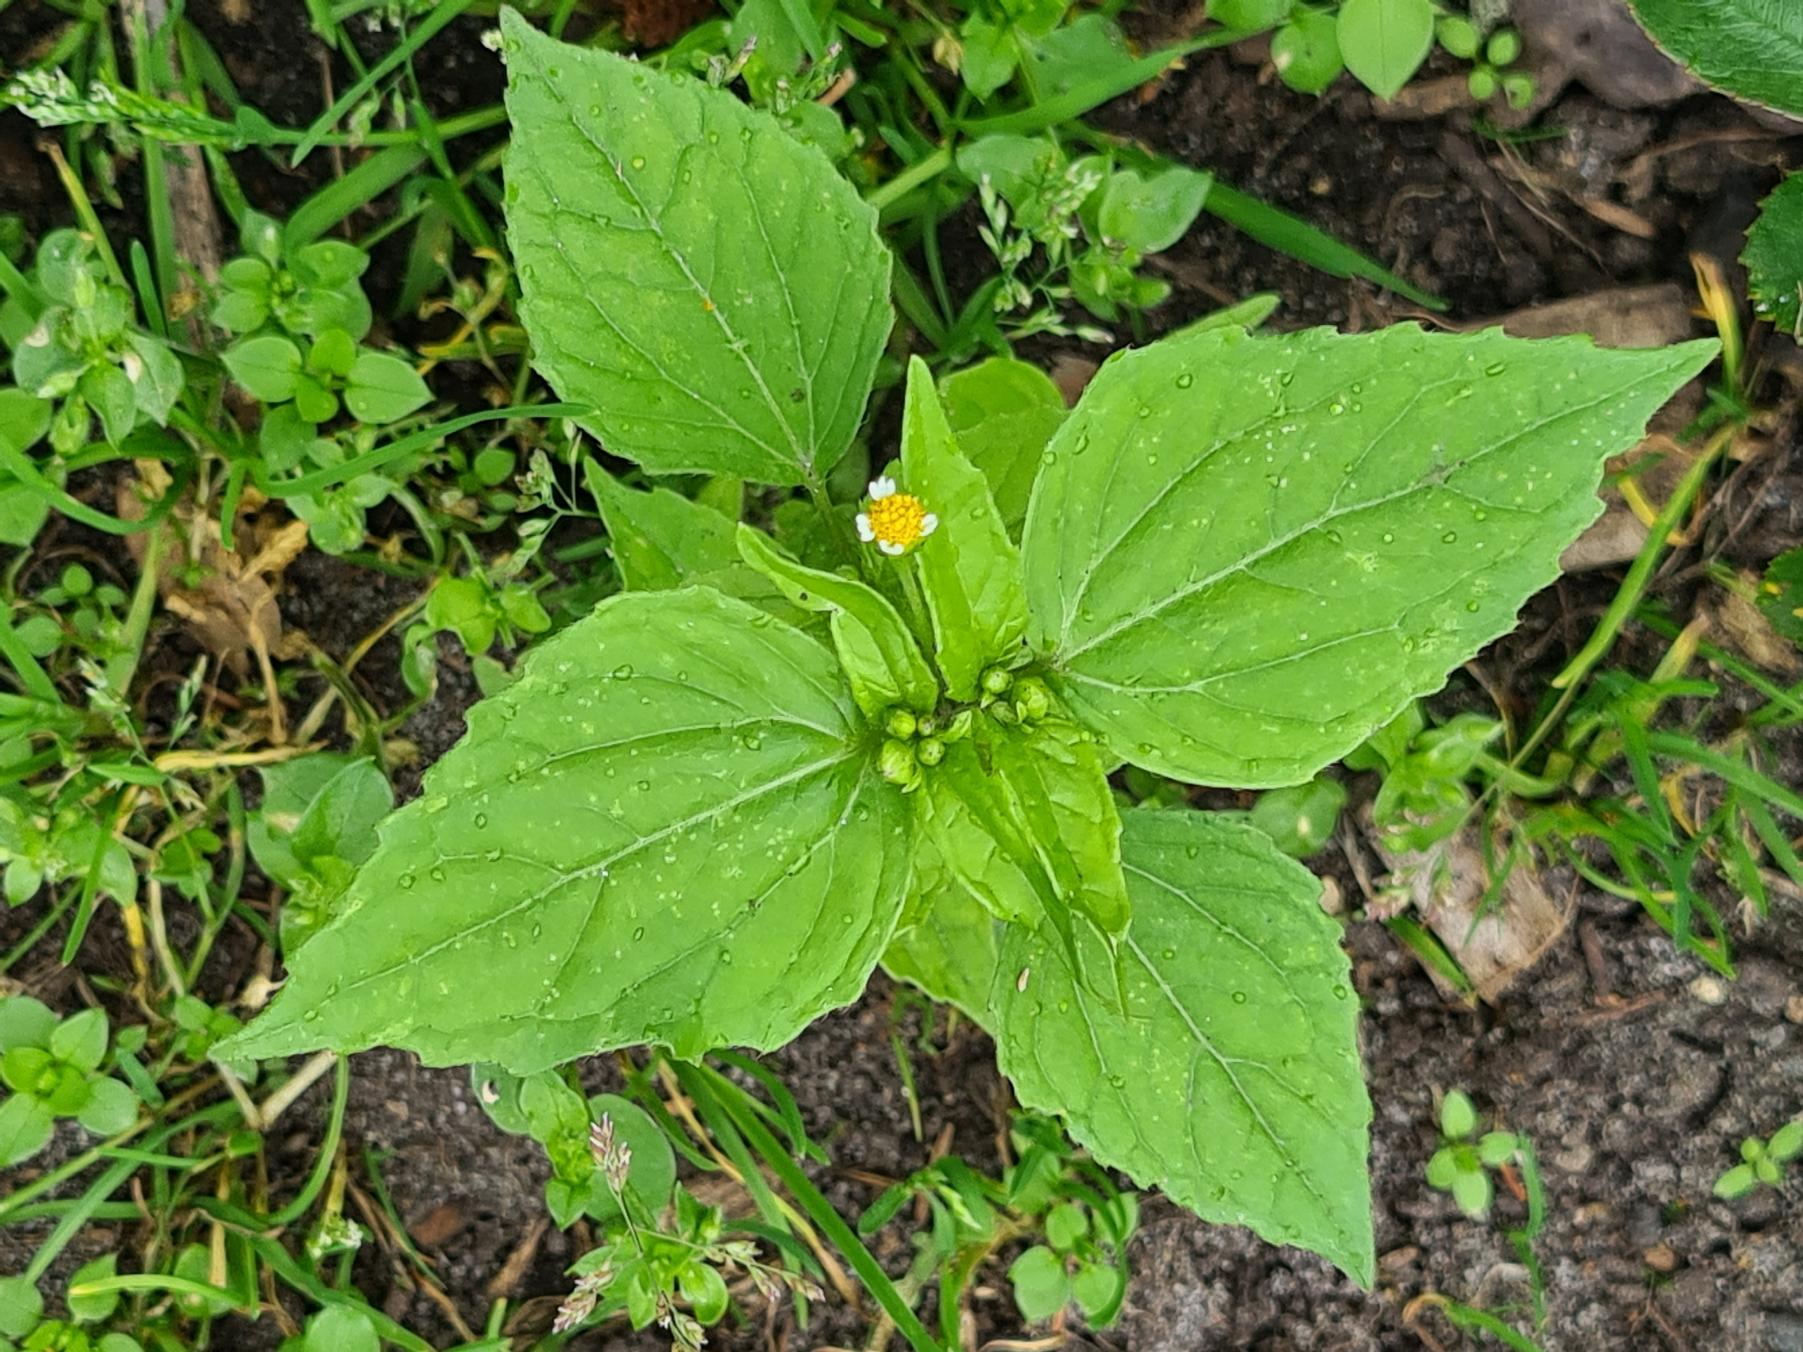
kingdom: Plantae
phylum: Tracheophyta
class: Magnoliopsida
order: Asterales
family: Asteraceae
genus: Galinsoga
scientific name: Galinsoga parviflora
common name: Håret kortstråle
